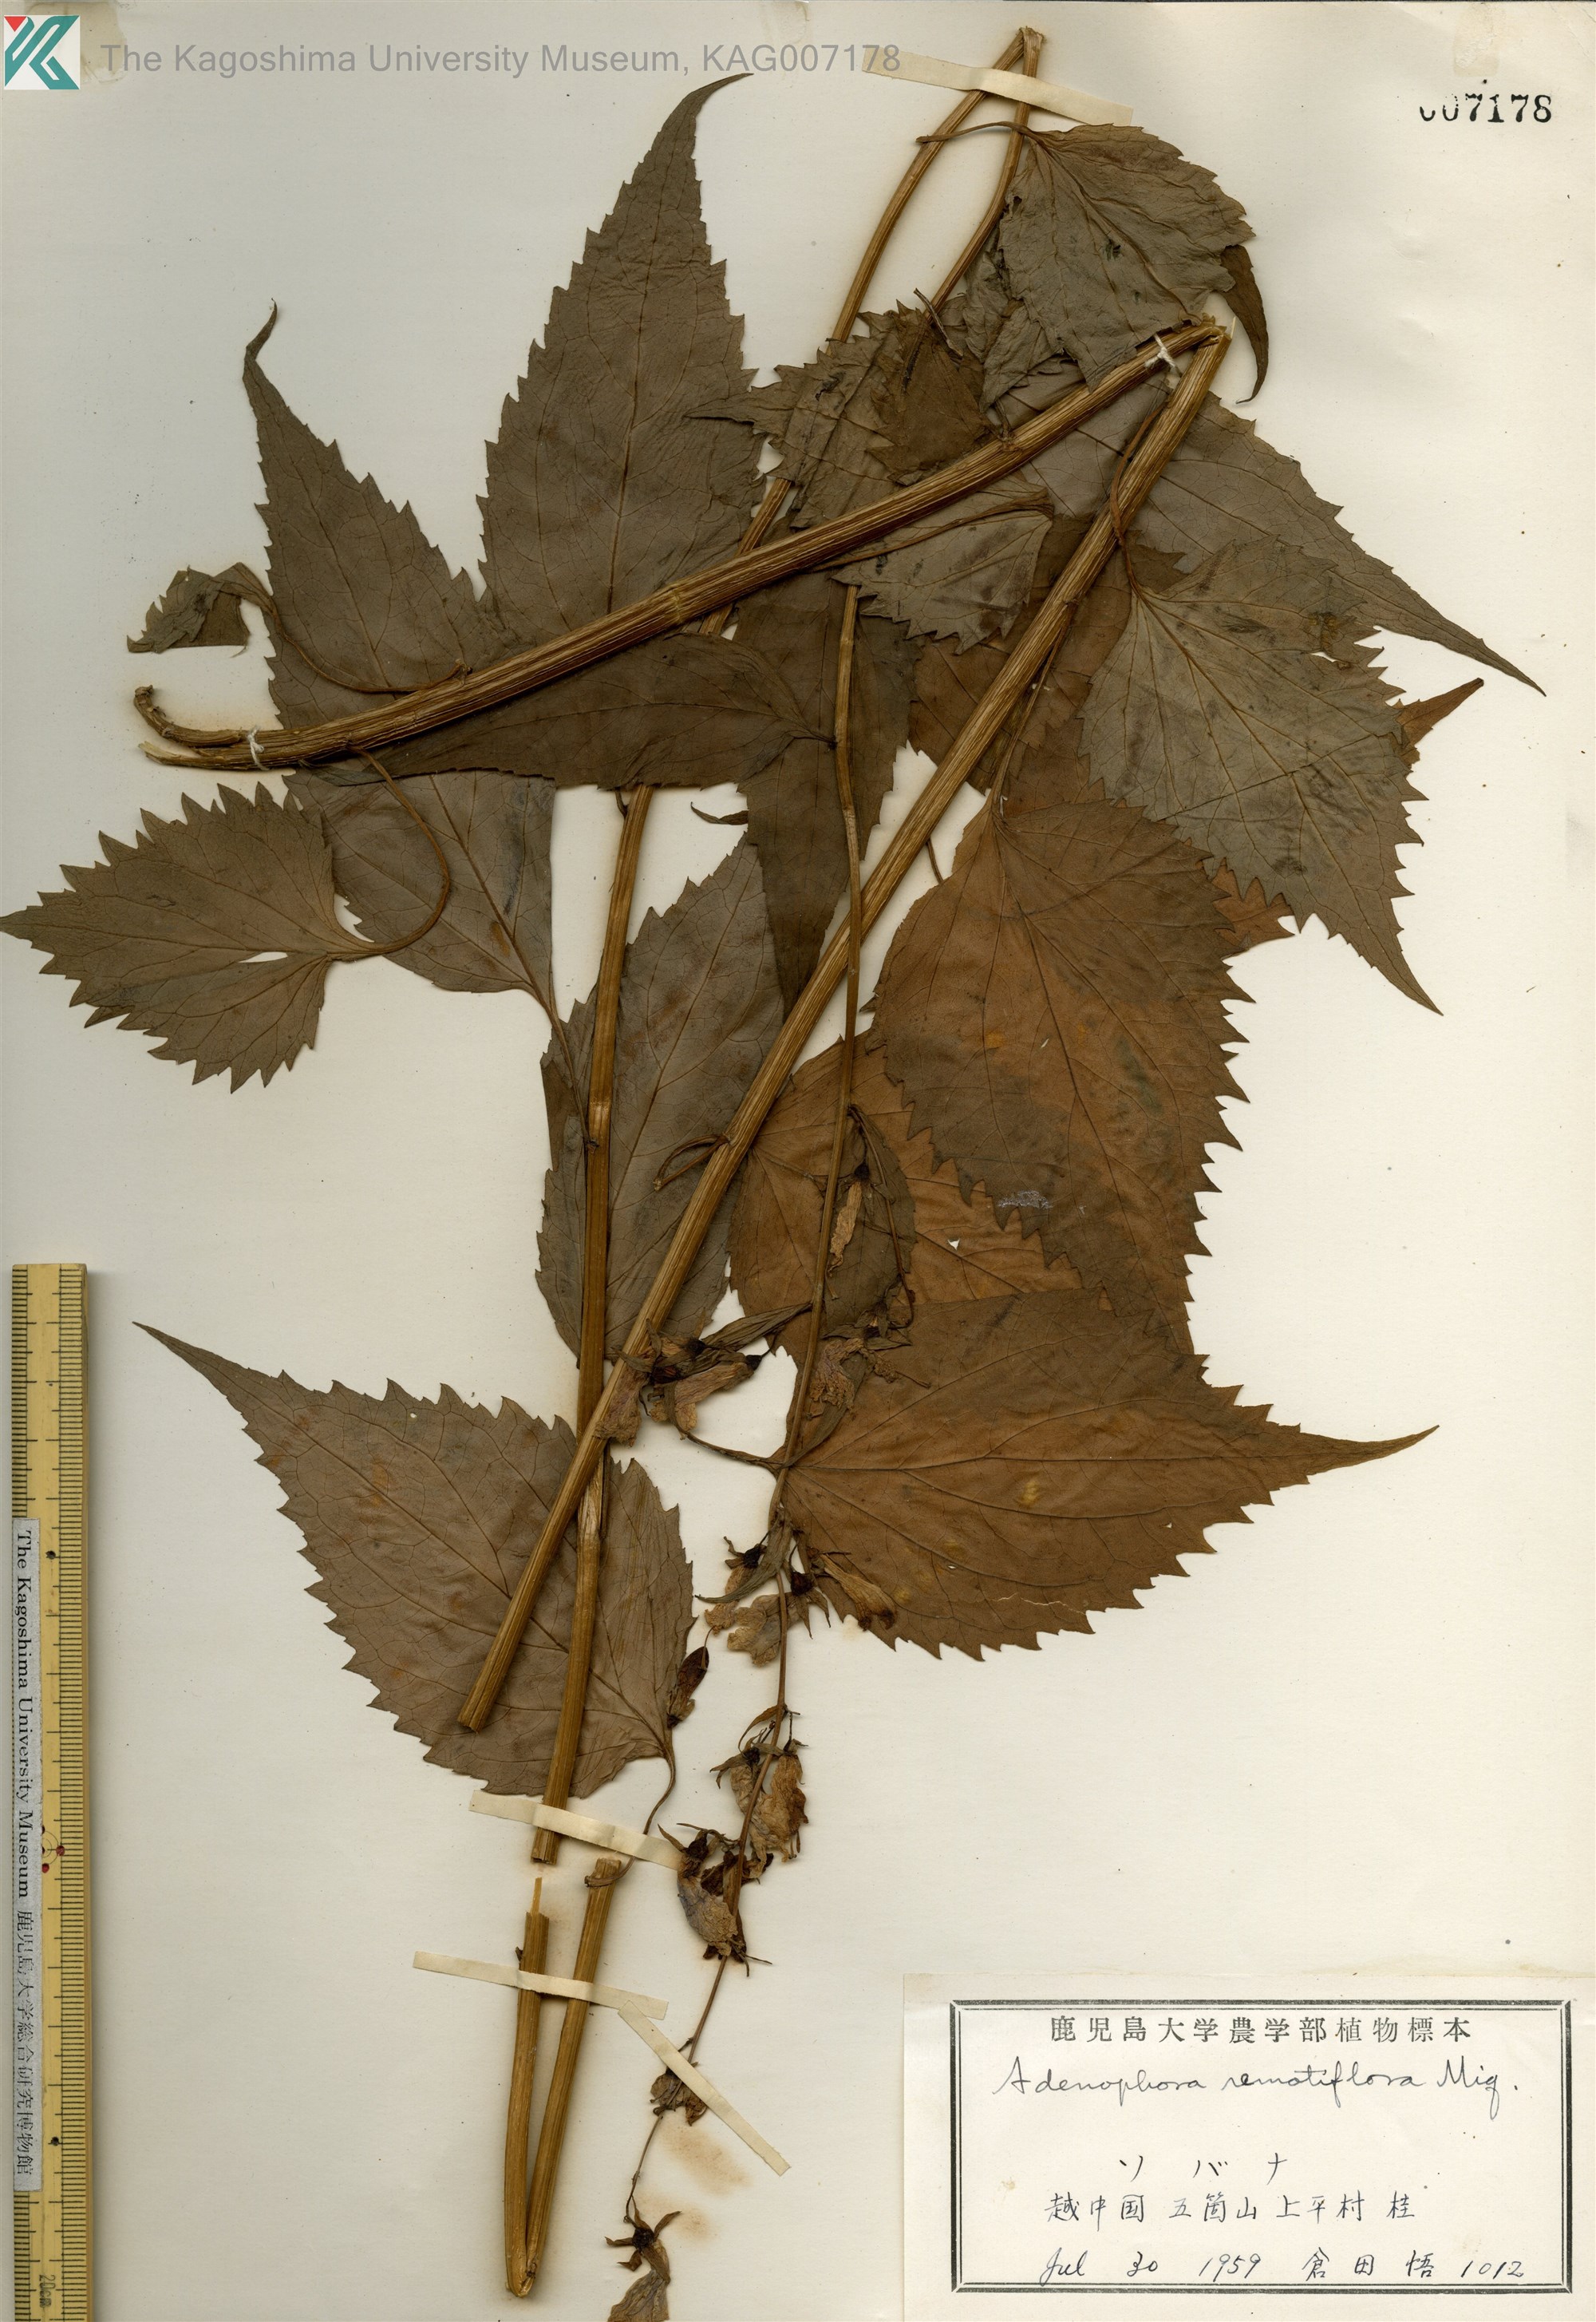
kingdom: Plantae
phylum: Tracheophyta
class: Magnoliopsida
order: Asterales
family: Campanulaceae
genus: Adenophora
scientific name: Adenophora remotiflora
